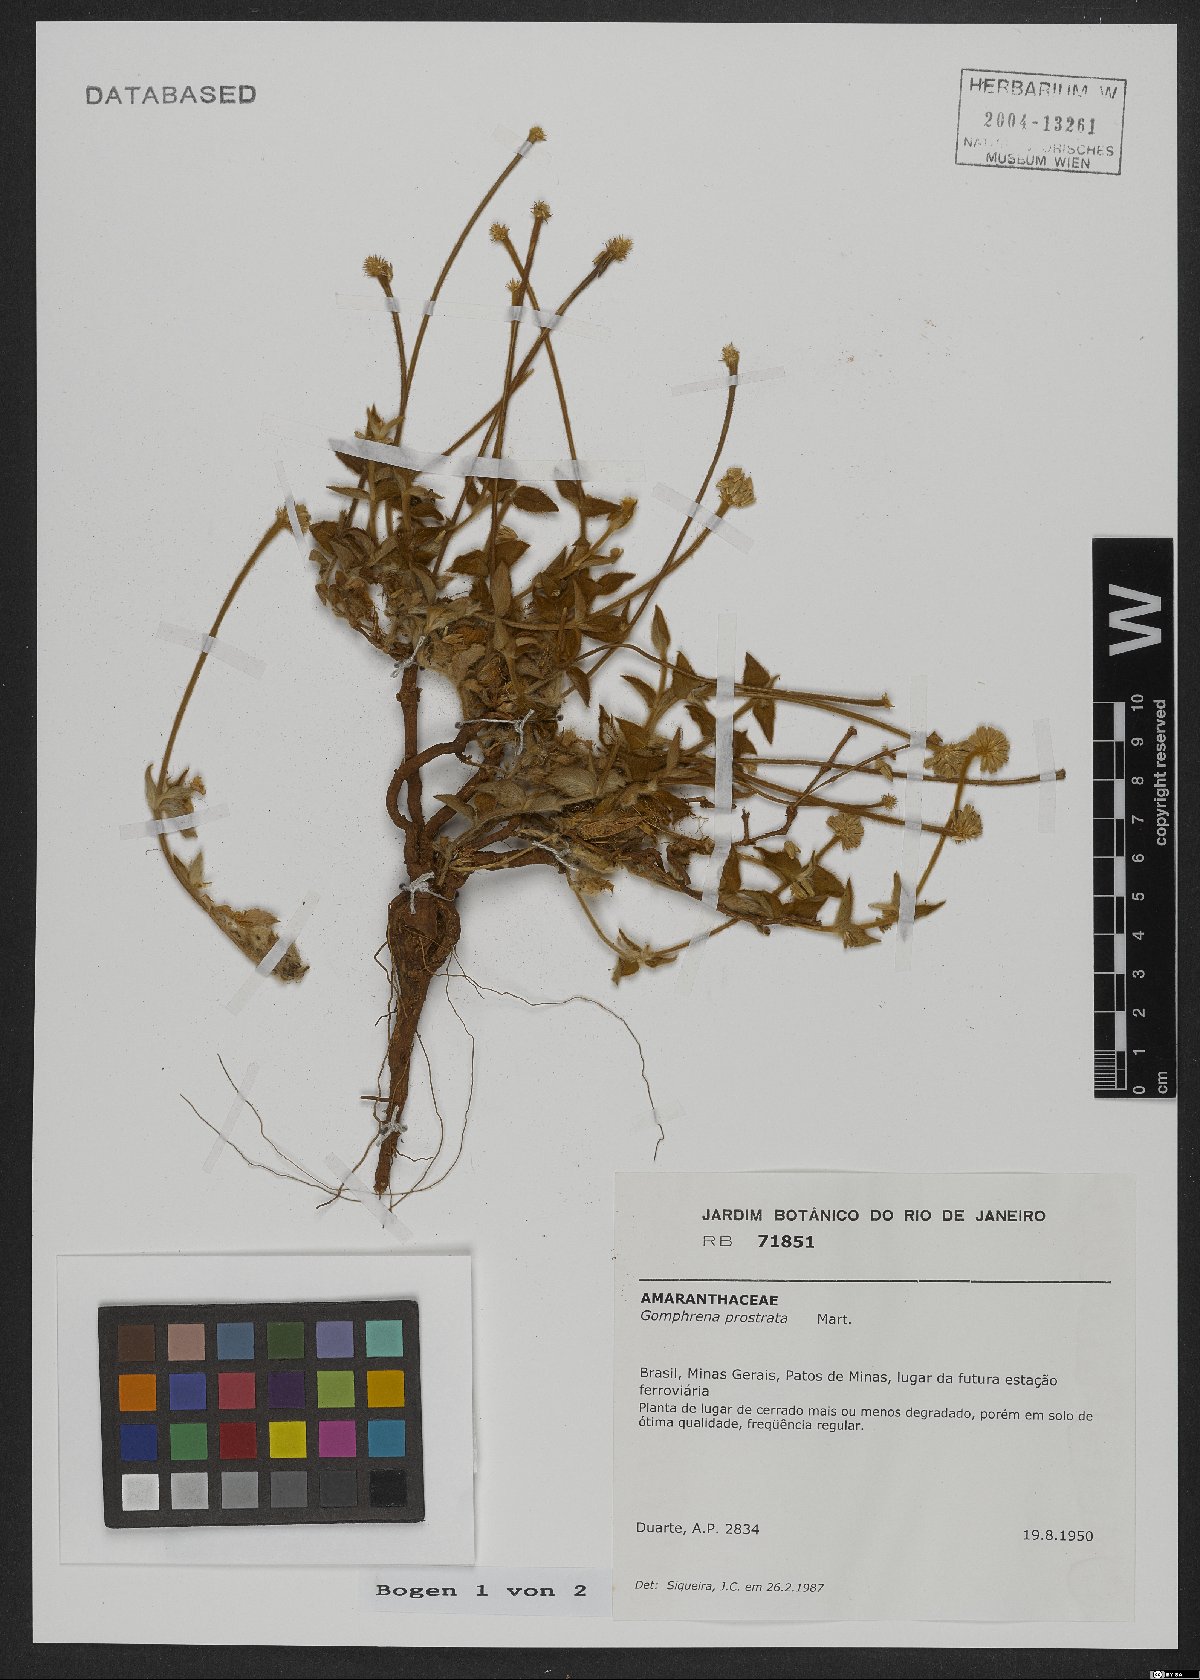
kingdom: Plantae
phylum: Tracheophyta
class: Magnoliopsida
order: Caryophyllales
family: Amaranthaceae
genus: Gomphrena
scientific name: Gomphrena prostrata
